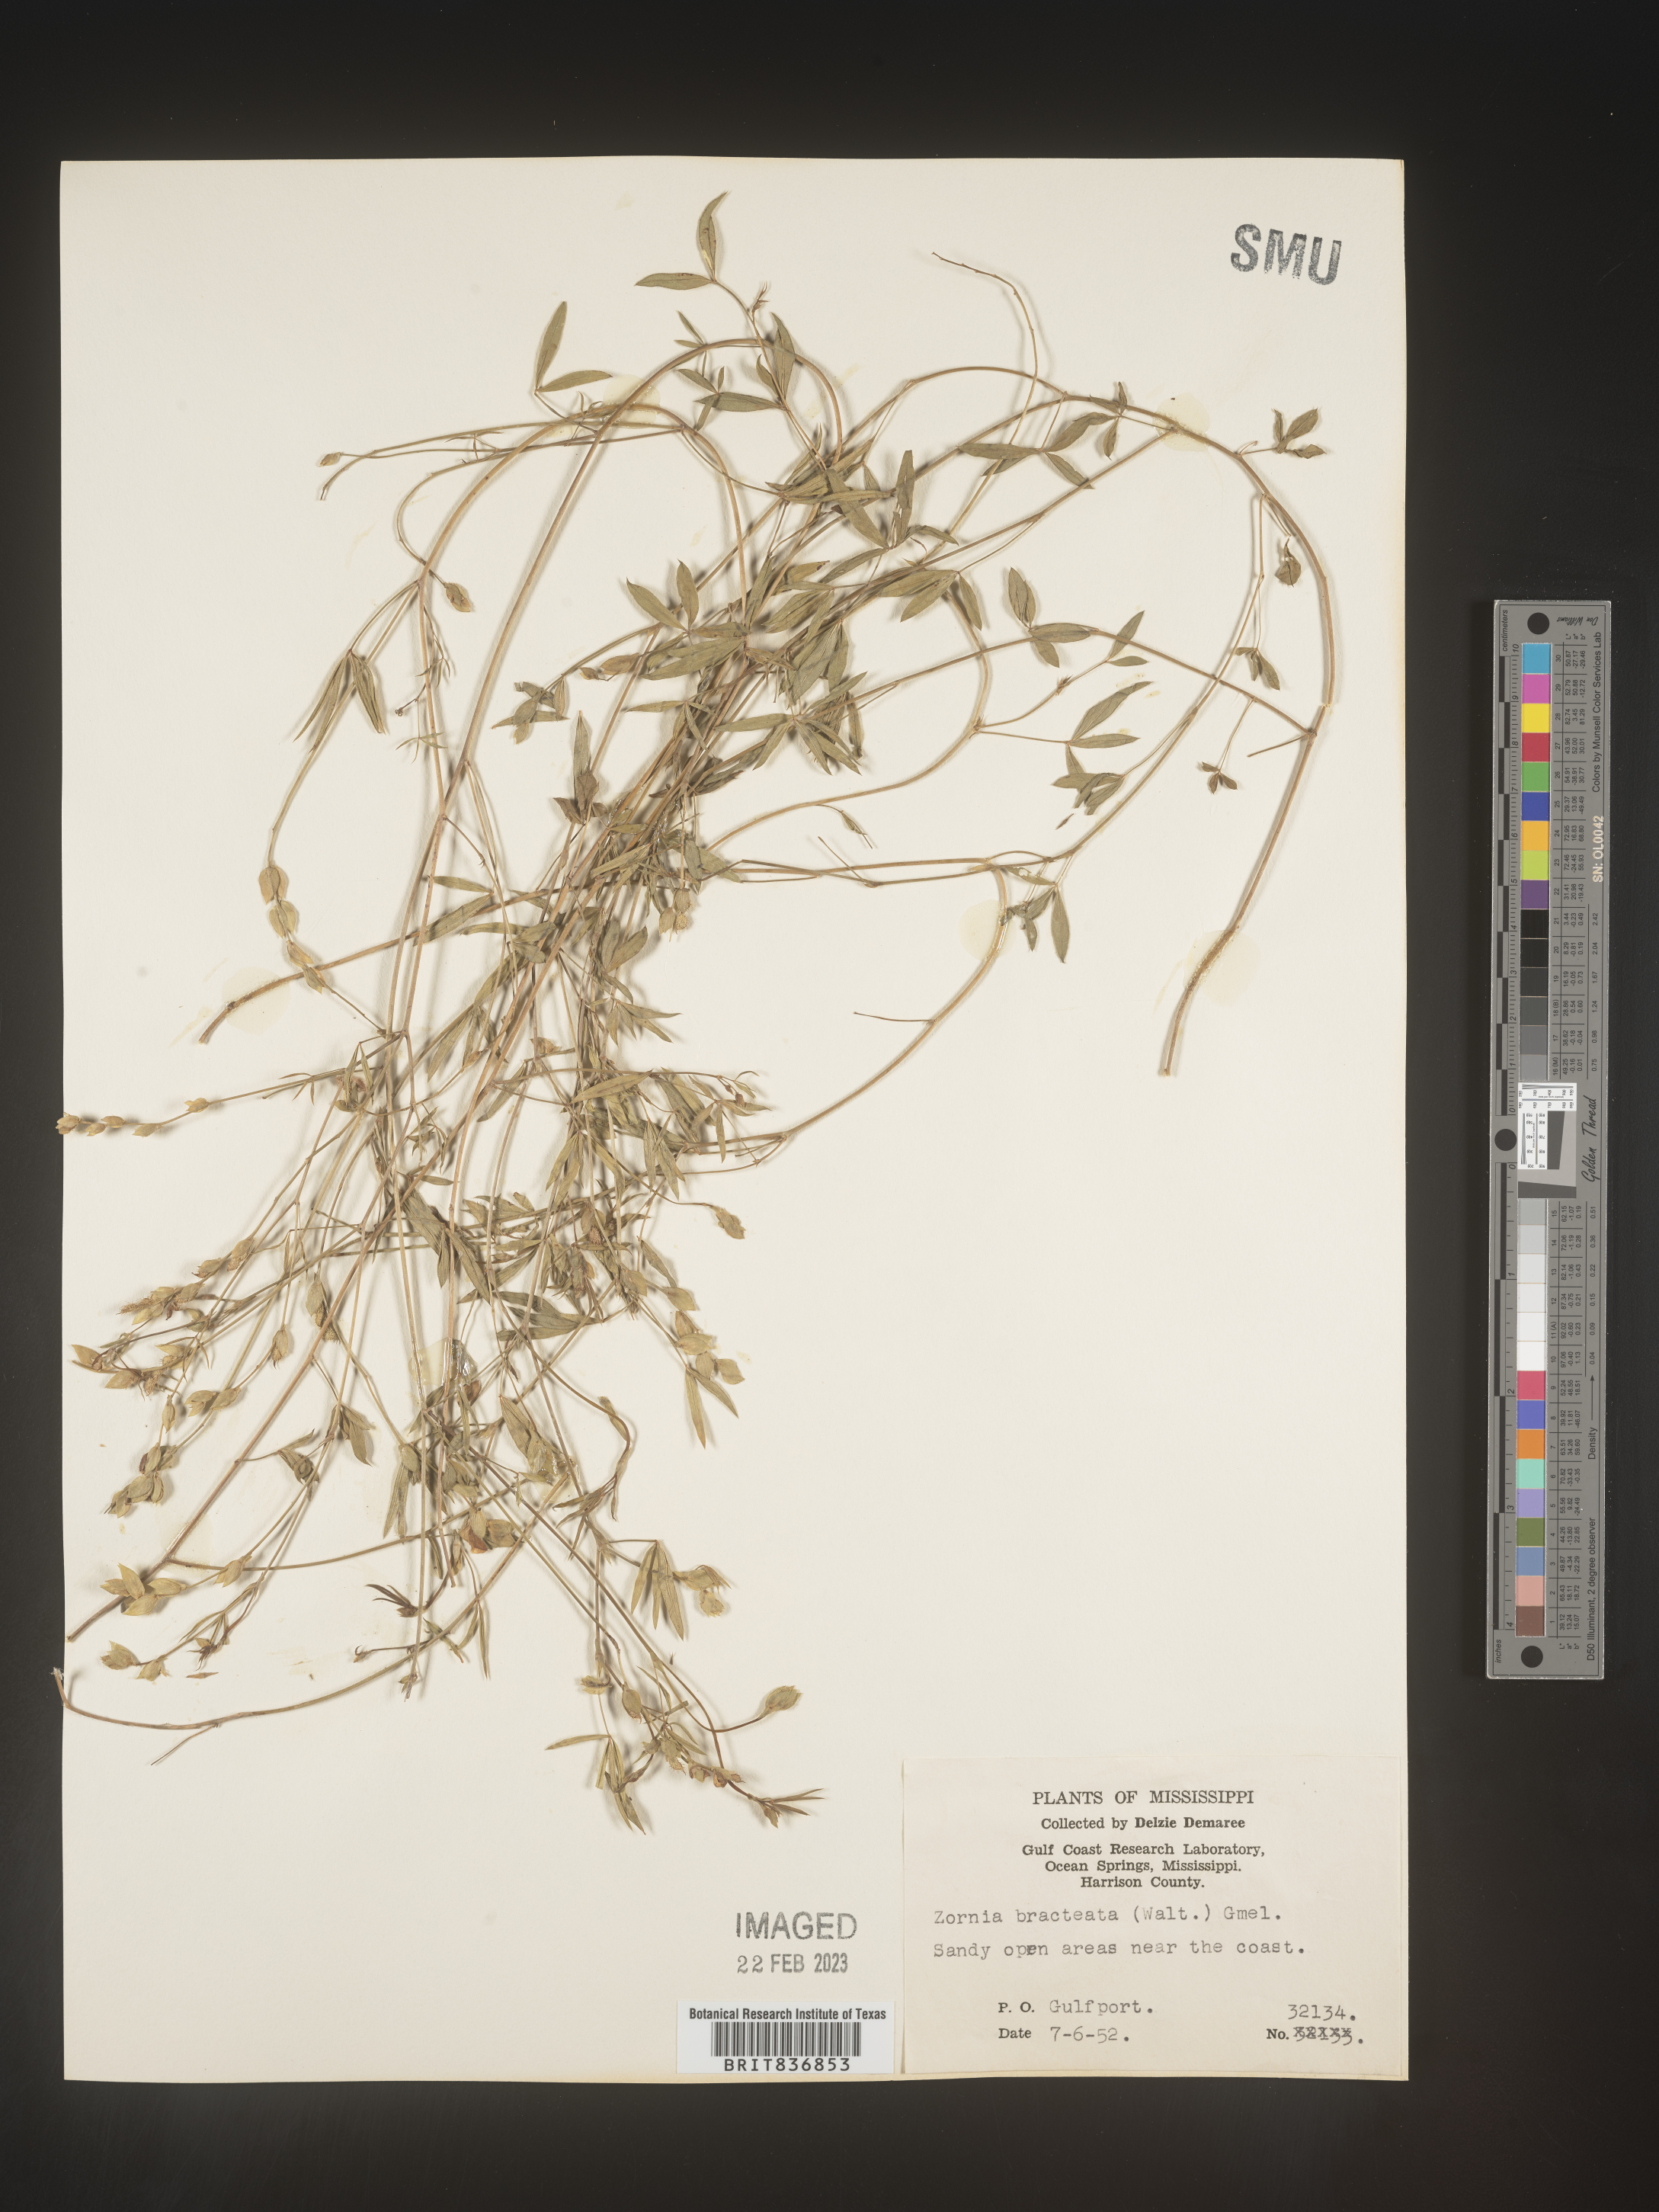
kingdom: Plantae
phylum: Tracheophyta
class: Magnoliopsida
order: Fabales
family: Fabaceae
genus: Zornia
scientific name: Zornia
